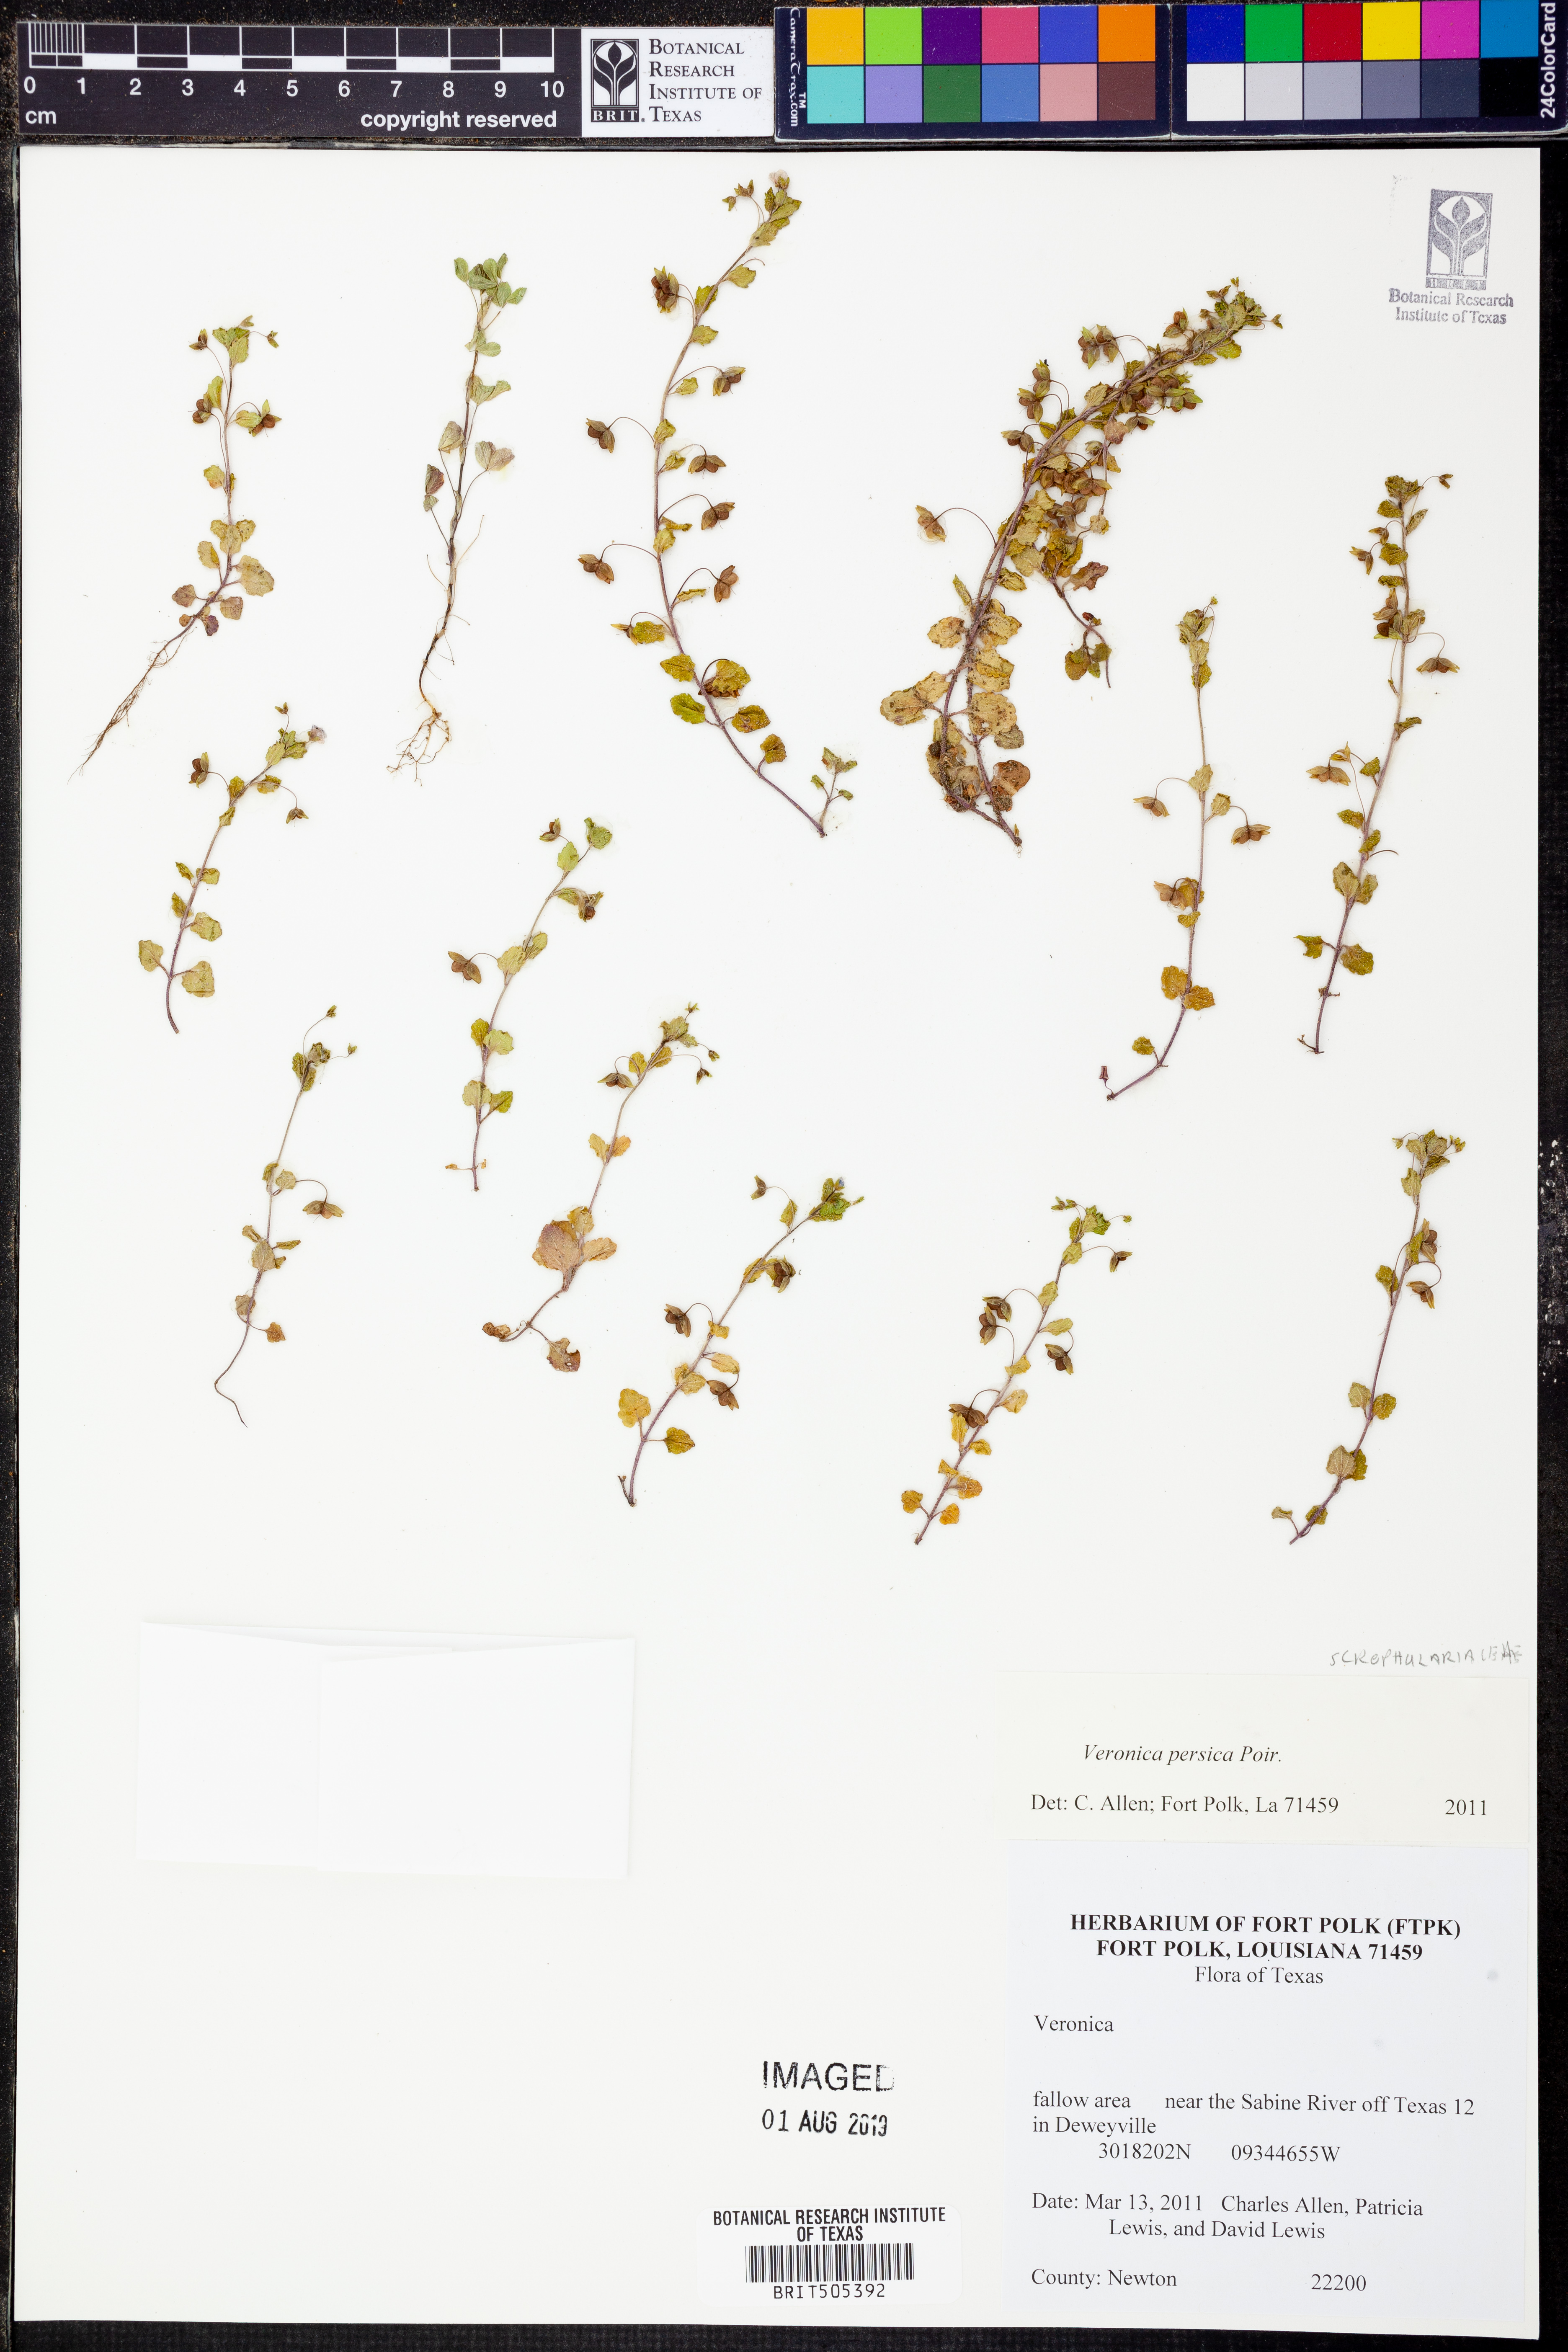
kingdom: Plantae
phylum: Tracheophyta
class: Magnoliopsida
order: Lamiales
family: Plantaginaceae
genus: Veronica
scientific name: Veronica persica
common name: Common field-speedwell
